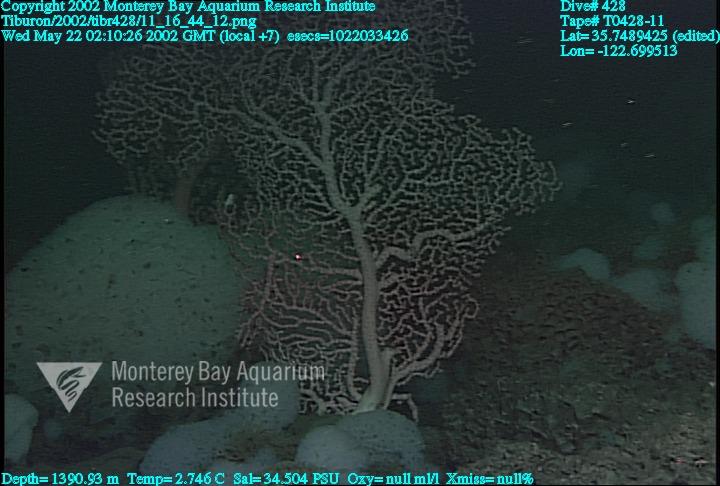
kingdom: Animalia
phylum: Porifera
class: Hexactinellida
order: Sceptrulophora
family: Farreidae
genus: Farrea
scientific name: Farrea occa
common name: Reversed glass sponge
